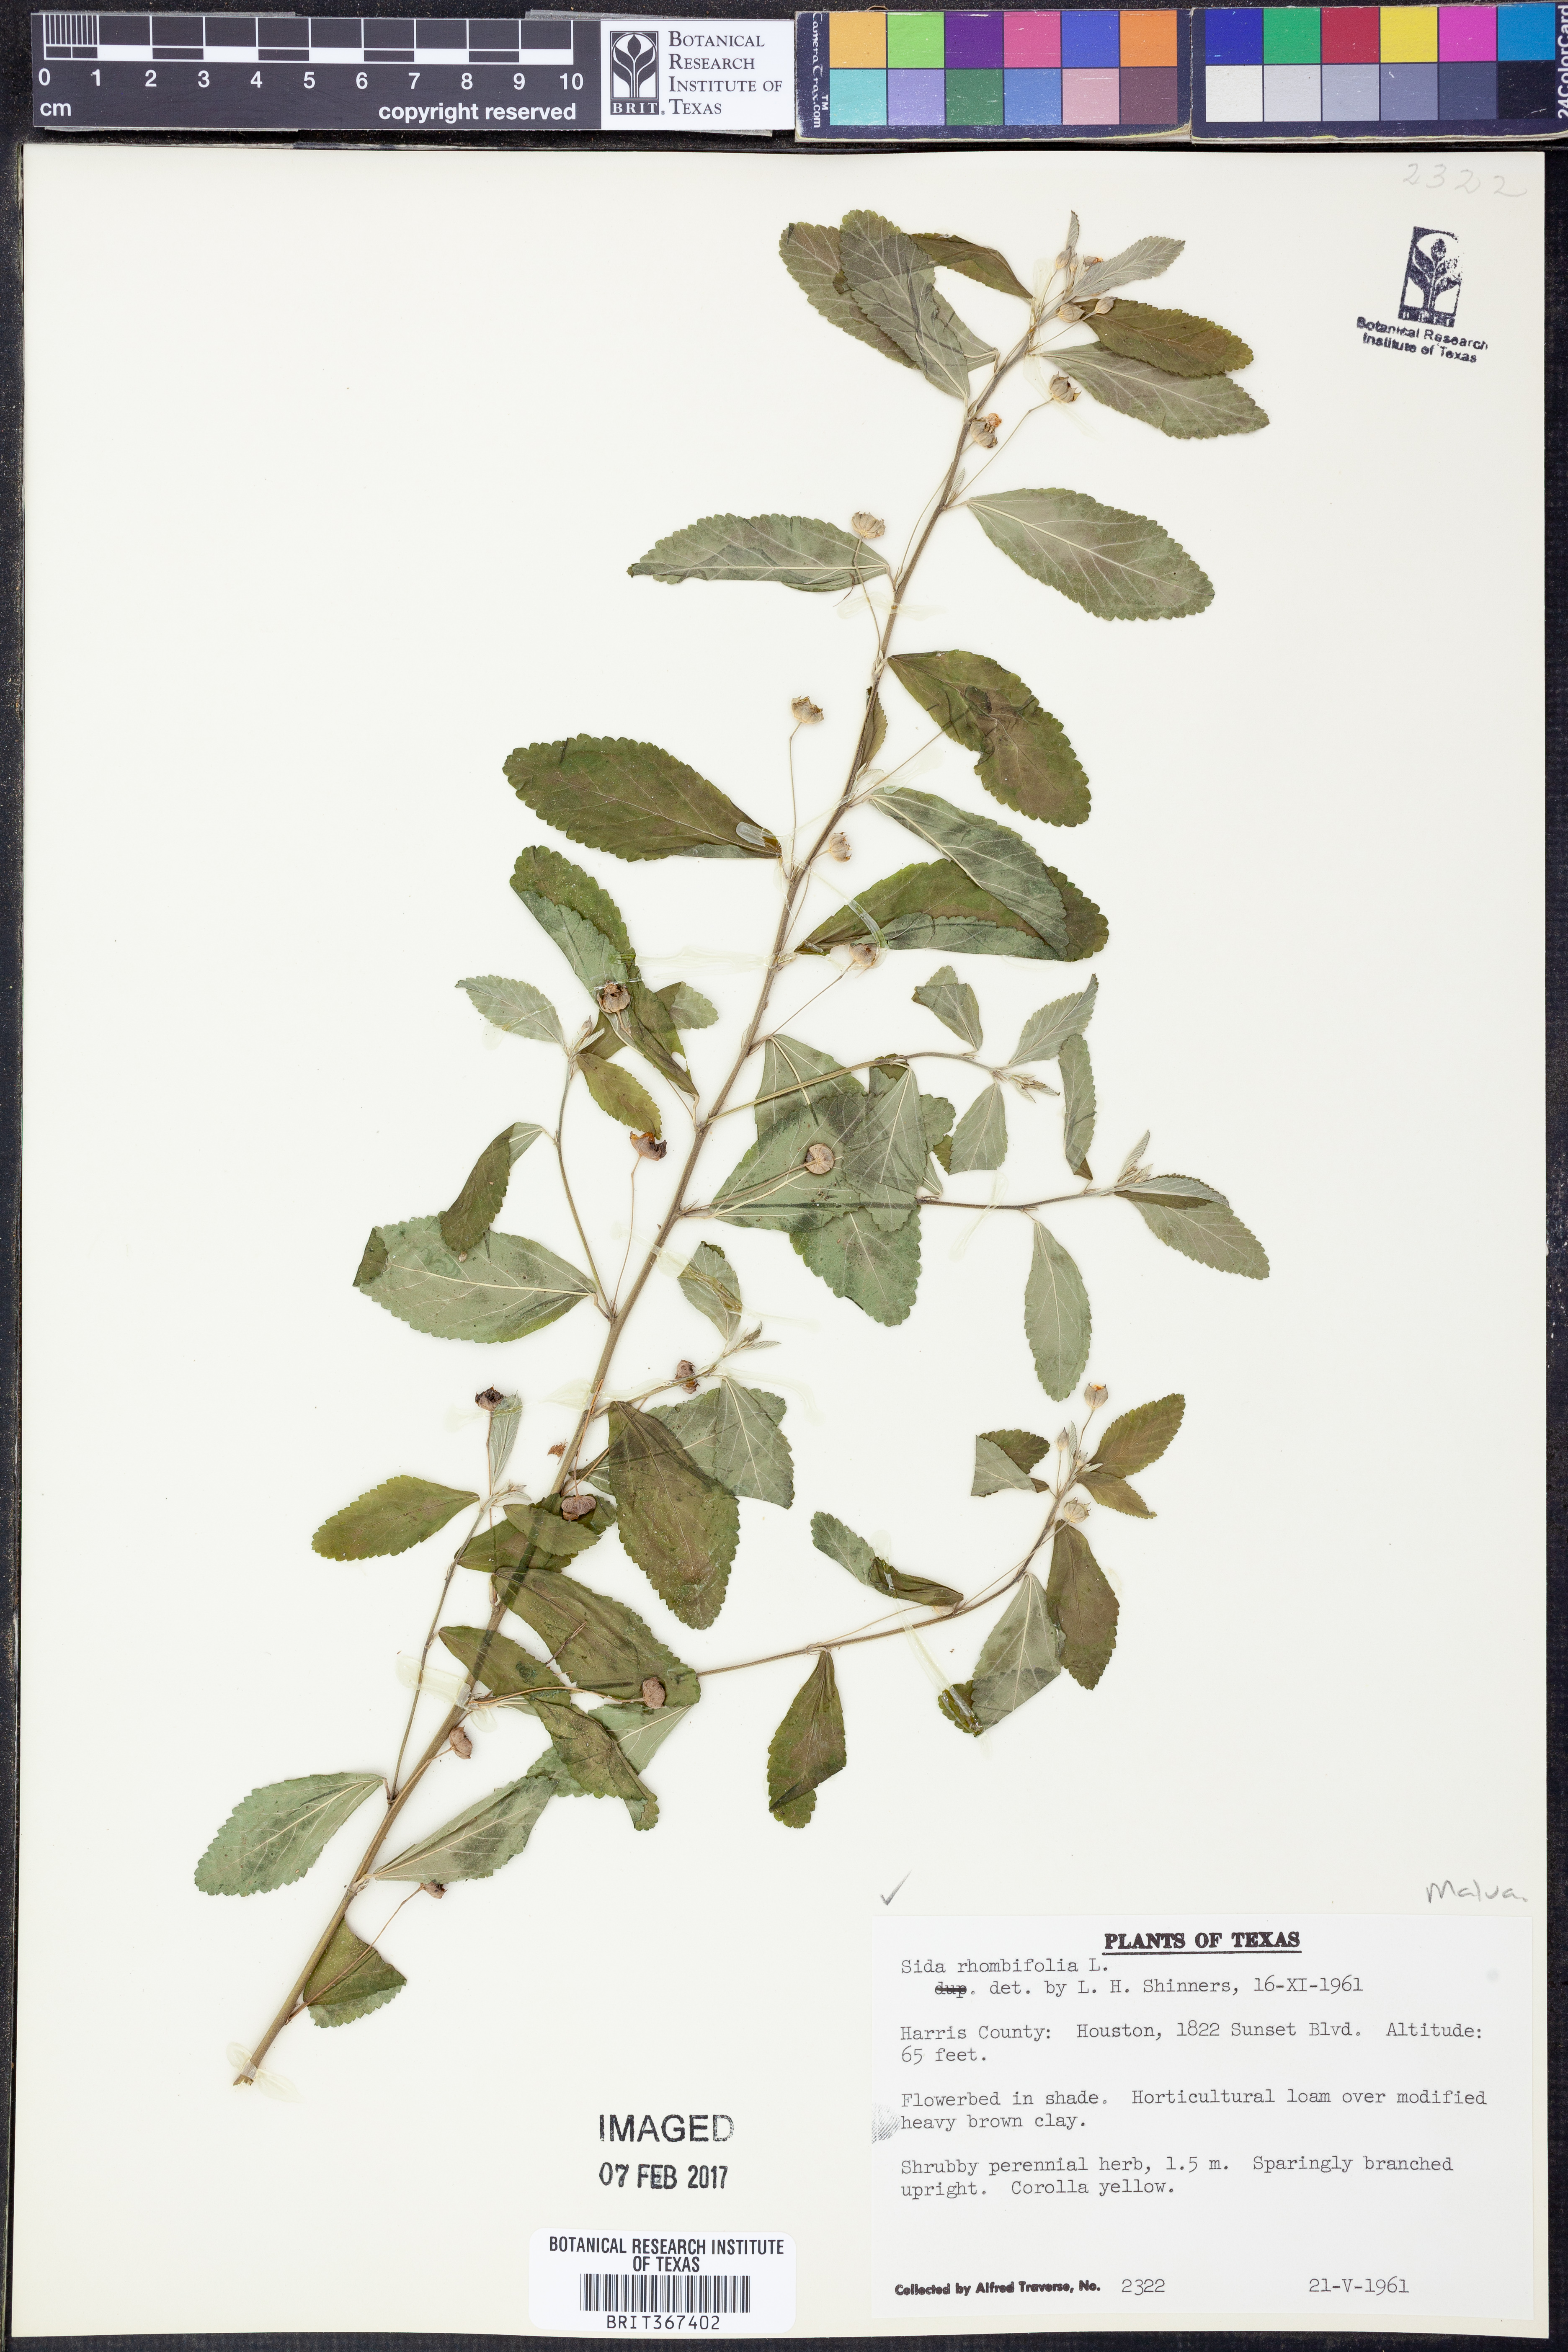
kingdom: Plantae
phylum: Tracheophyta
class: Magnoliopsida
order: Malvales
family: Malvaceae
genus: Sida
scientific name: Sida rhombifolia
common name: Queensland-hemp
